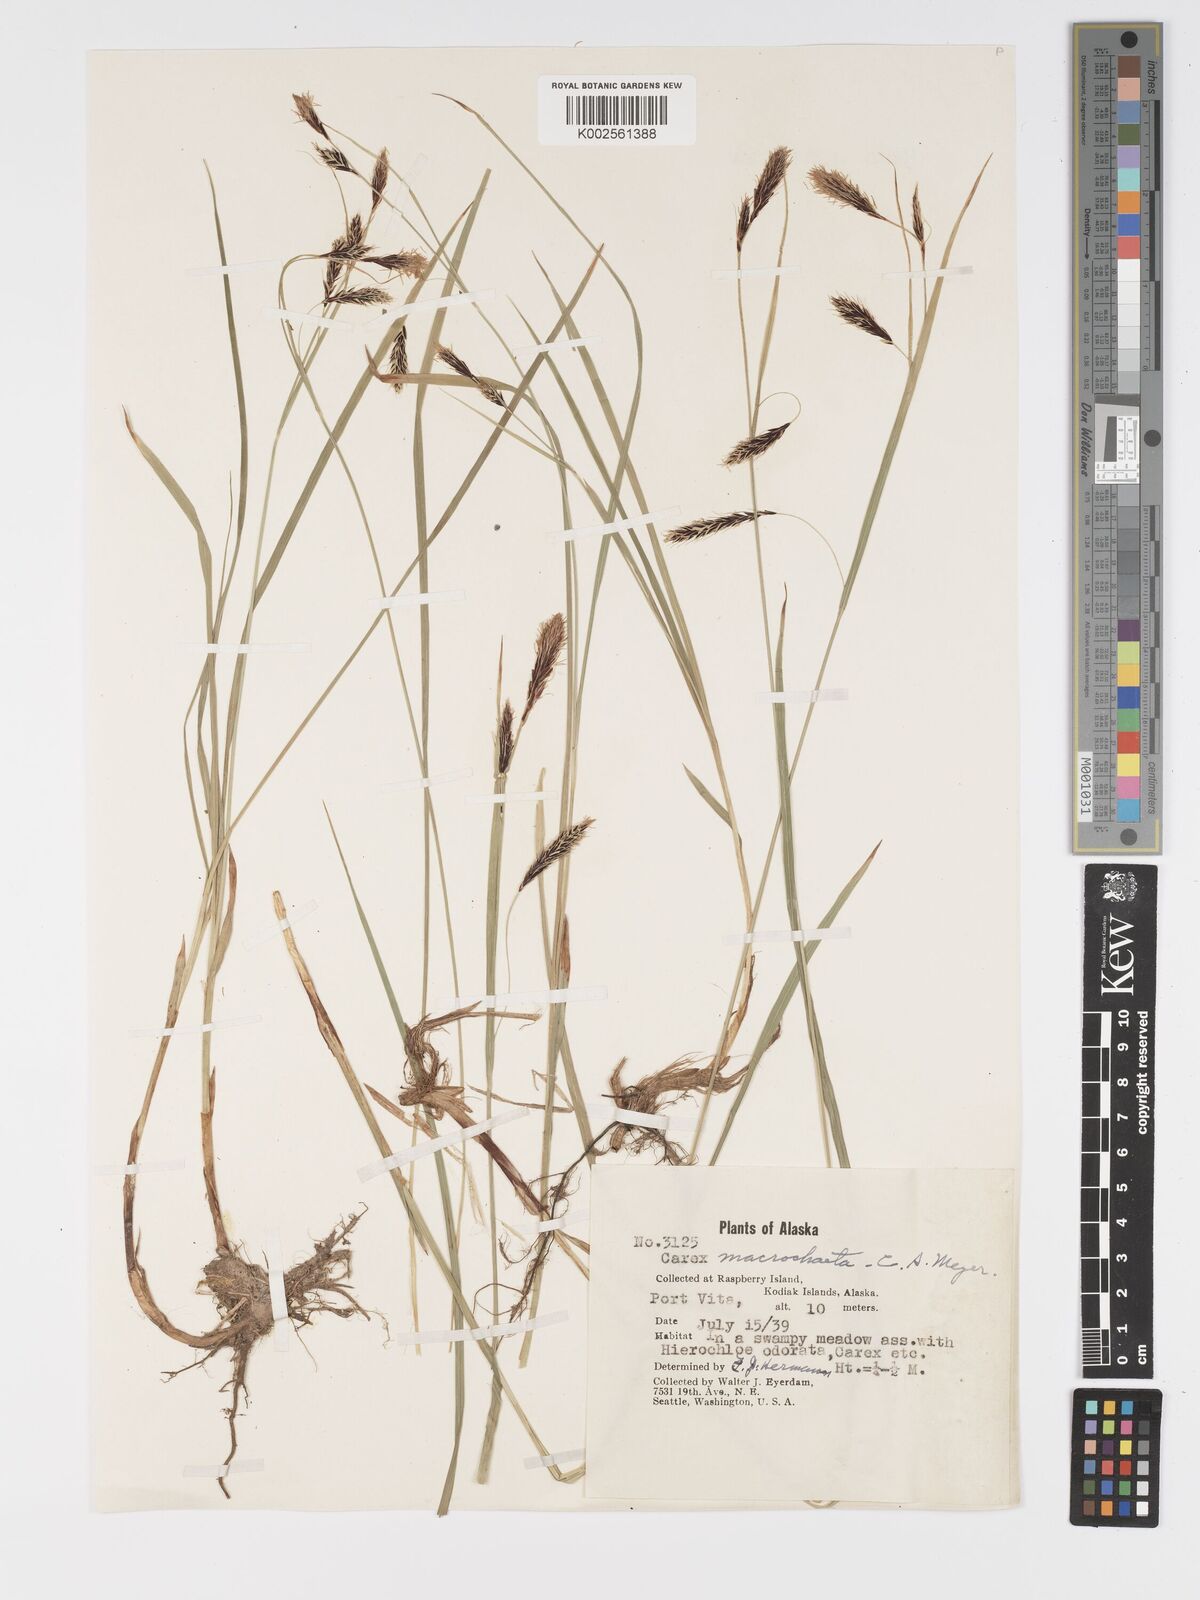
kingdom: Plantae
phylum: Tracheophyta
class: Liliopsida
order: Poales
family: Cyperaceae
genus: Carex
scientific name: Carex macrochaeta
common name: Alaska large awn sedge
